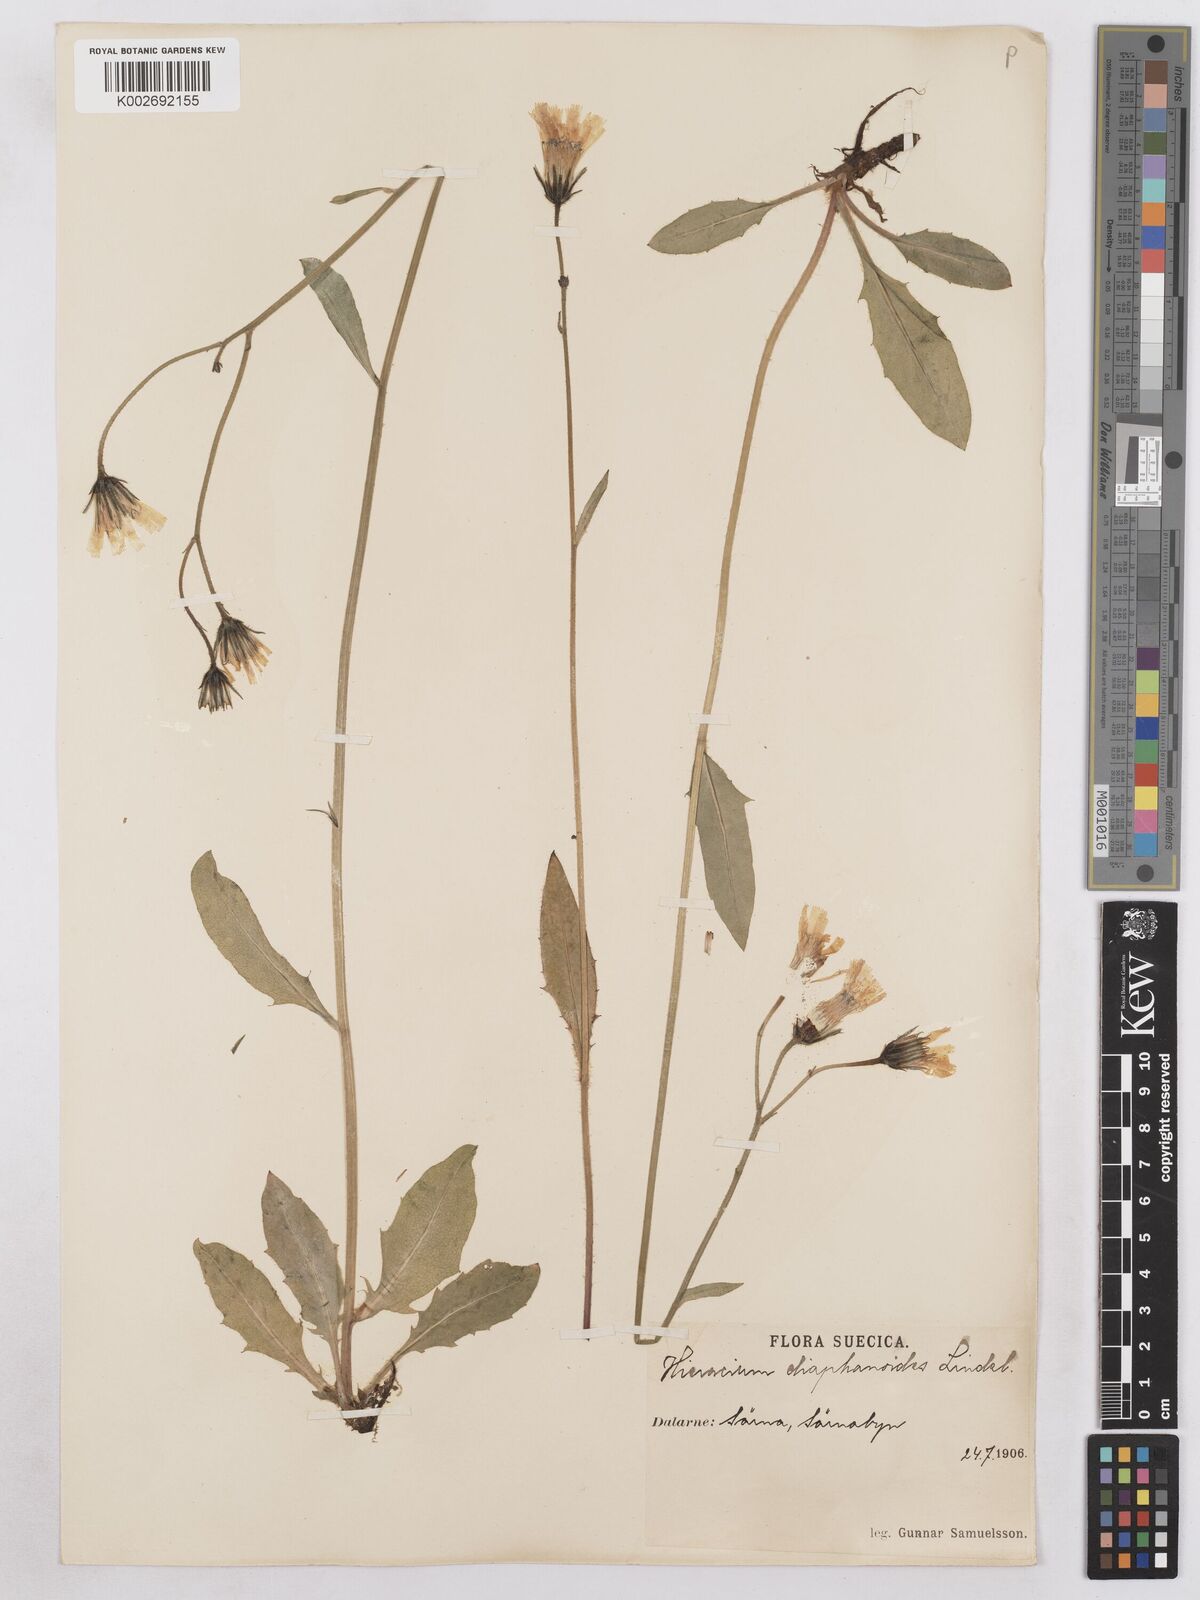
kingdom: Plantae
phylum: Tracheophyta
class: Magnoliopsida
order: Asterales
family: Asteraceae
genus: Hieracium
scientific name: Hieracium diaphanoides
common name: Fine-bracted hawkweed
